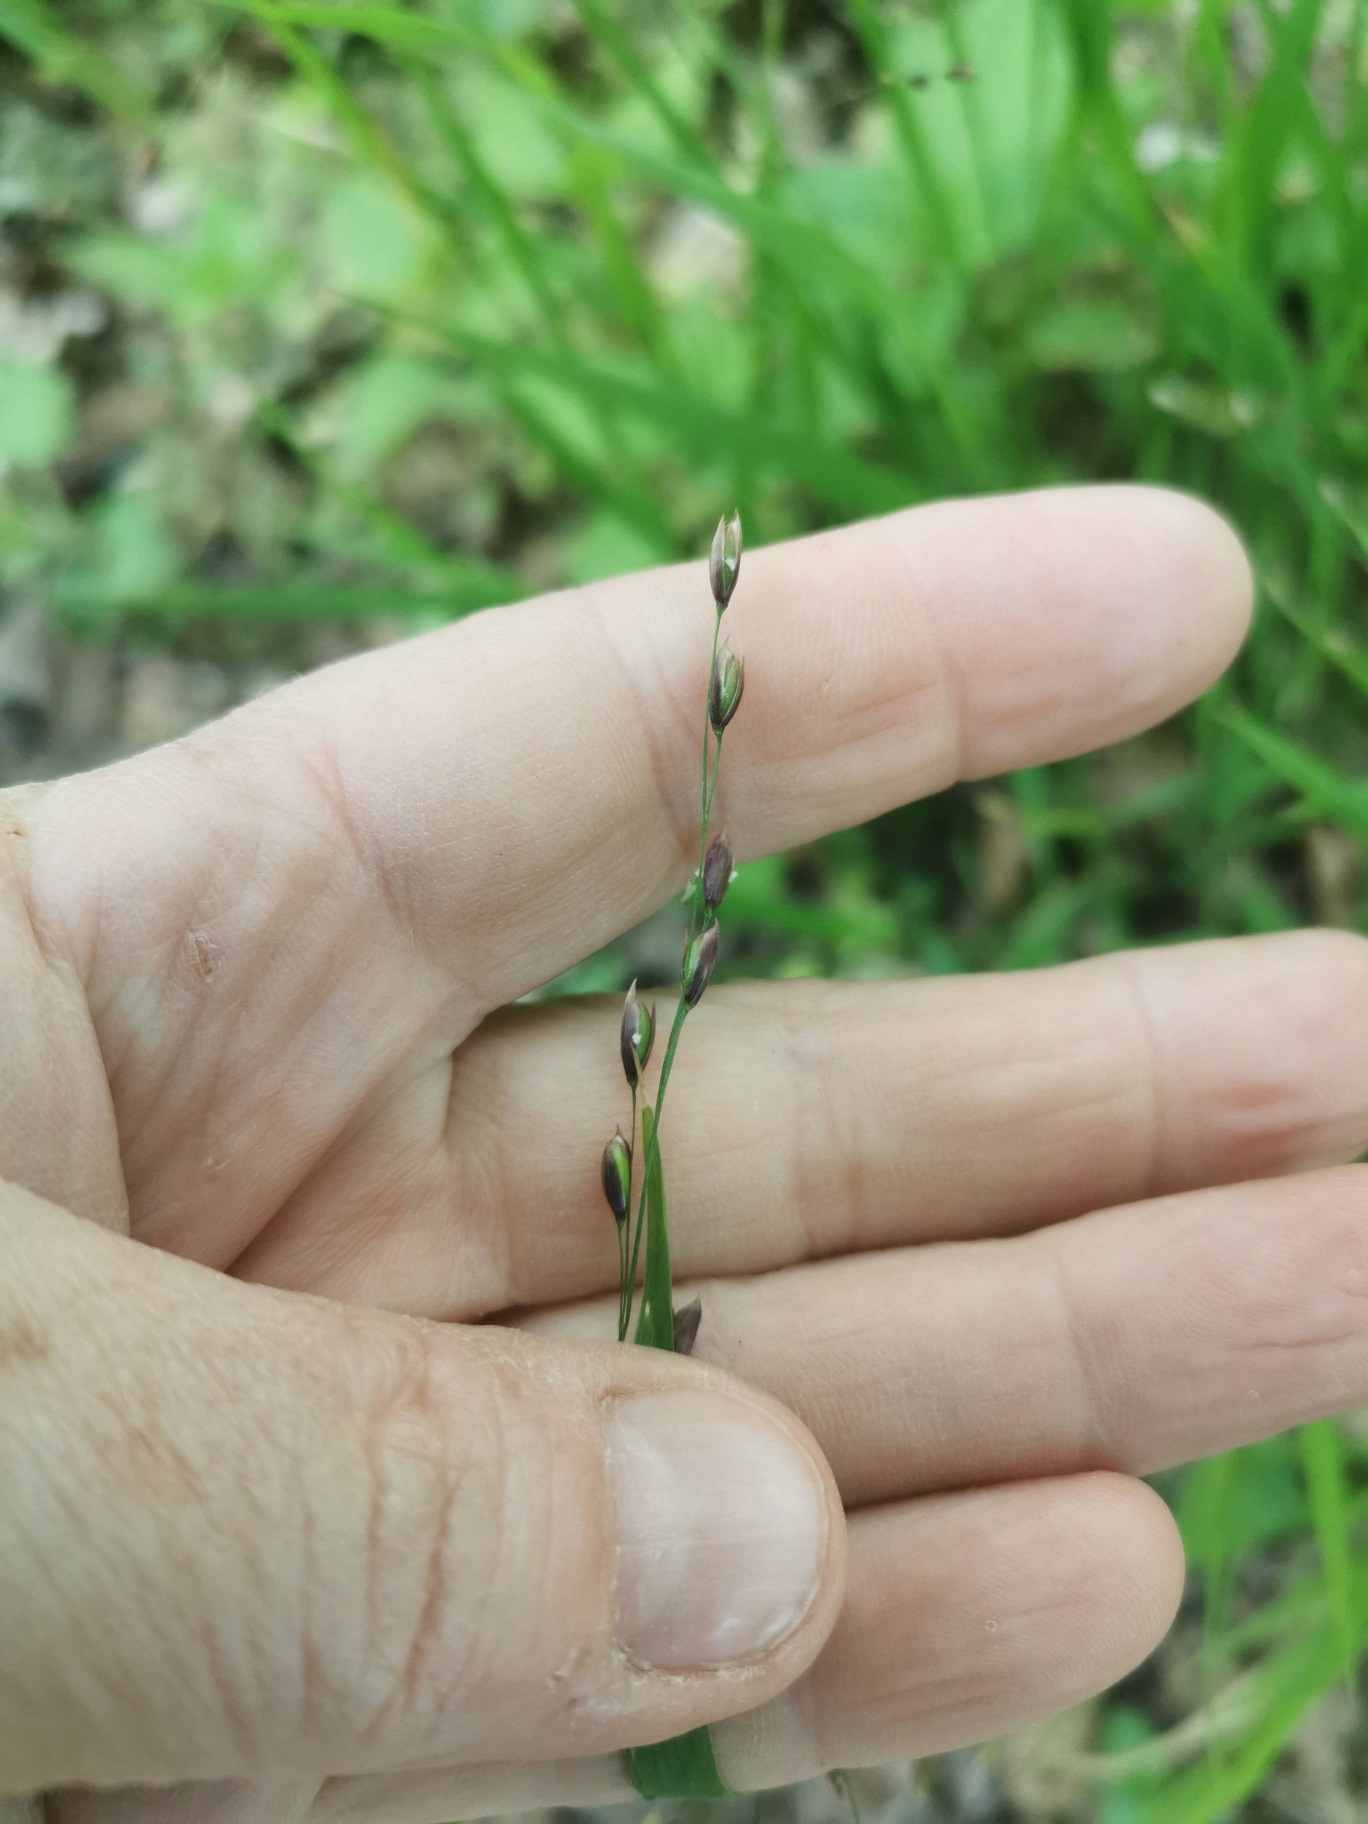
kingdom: Plantae
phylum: Tracheophyta
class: Liliopsida
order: Poales
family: Poaceae
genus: Melica
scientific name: Melica uniflora
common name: Enblomstret flitteraks
